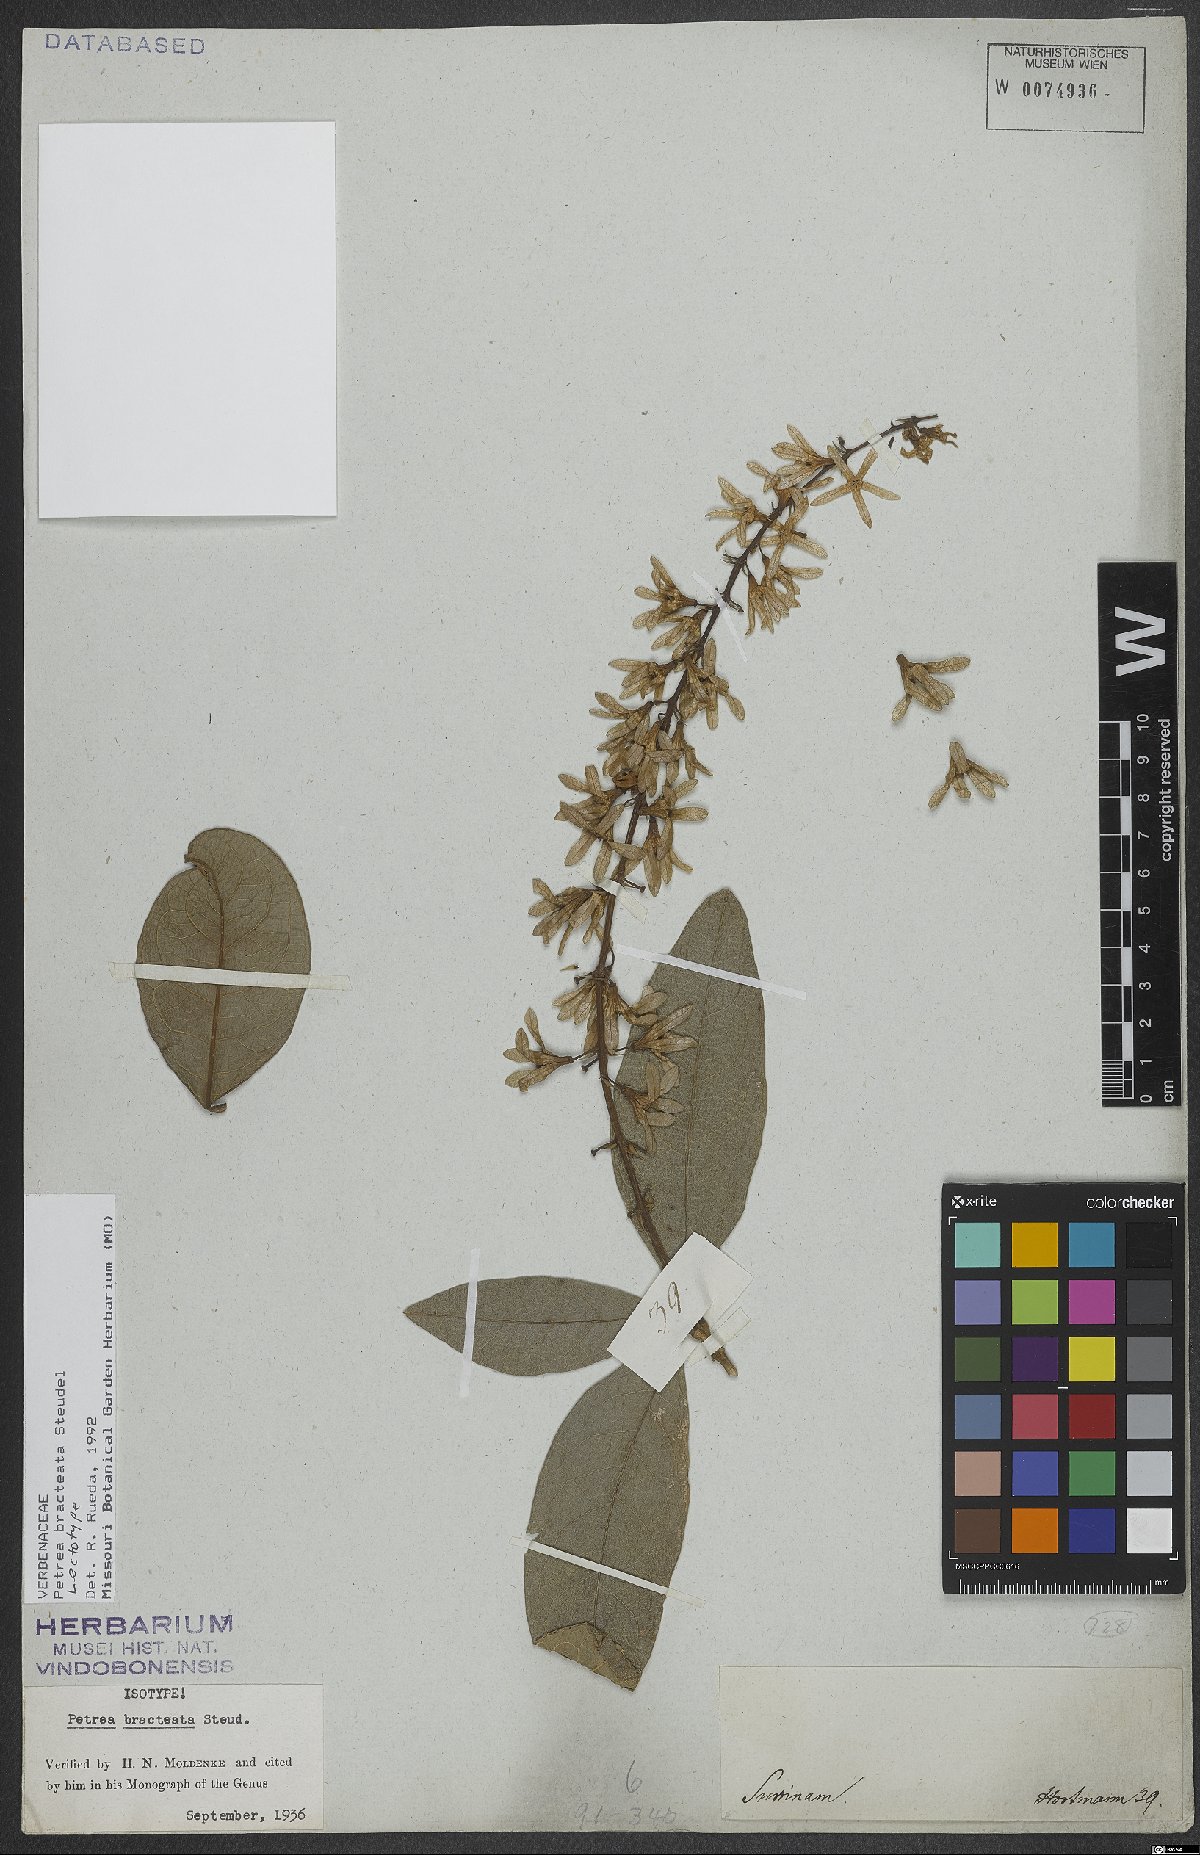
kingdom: Plantae
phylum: Tracheophyta
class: Magnoliopsida
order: Lamiales
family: Verbenaceae
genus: Petrea
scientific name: Petrea bracteata
